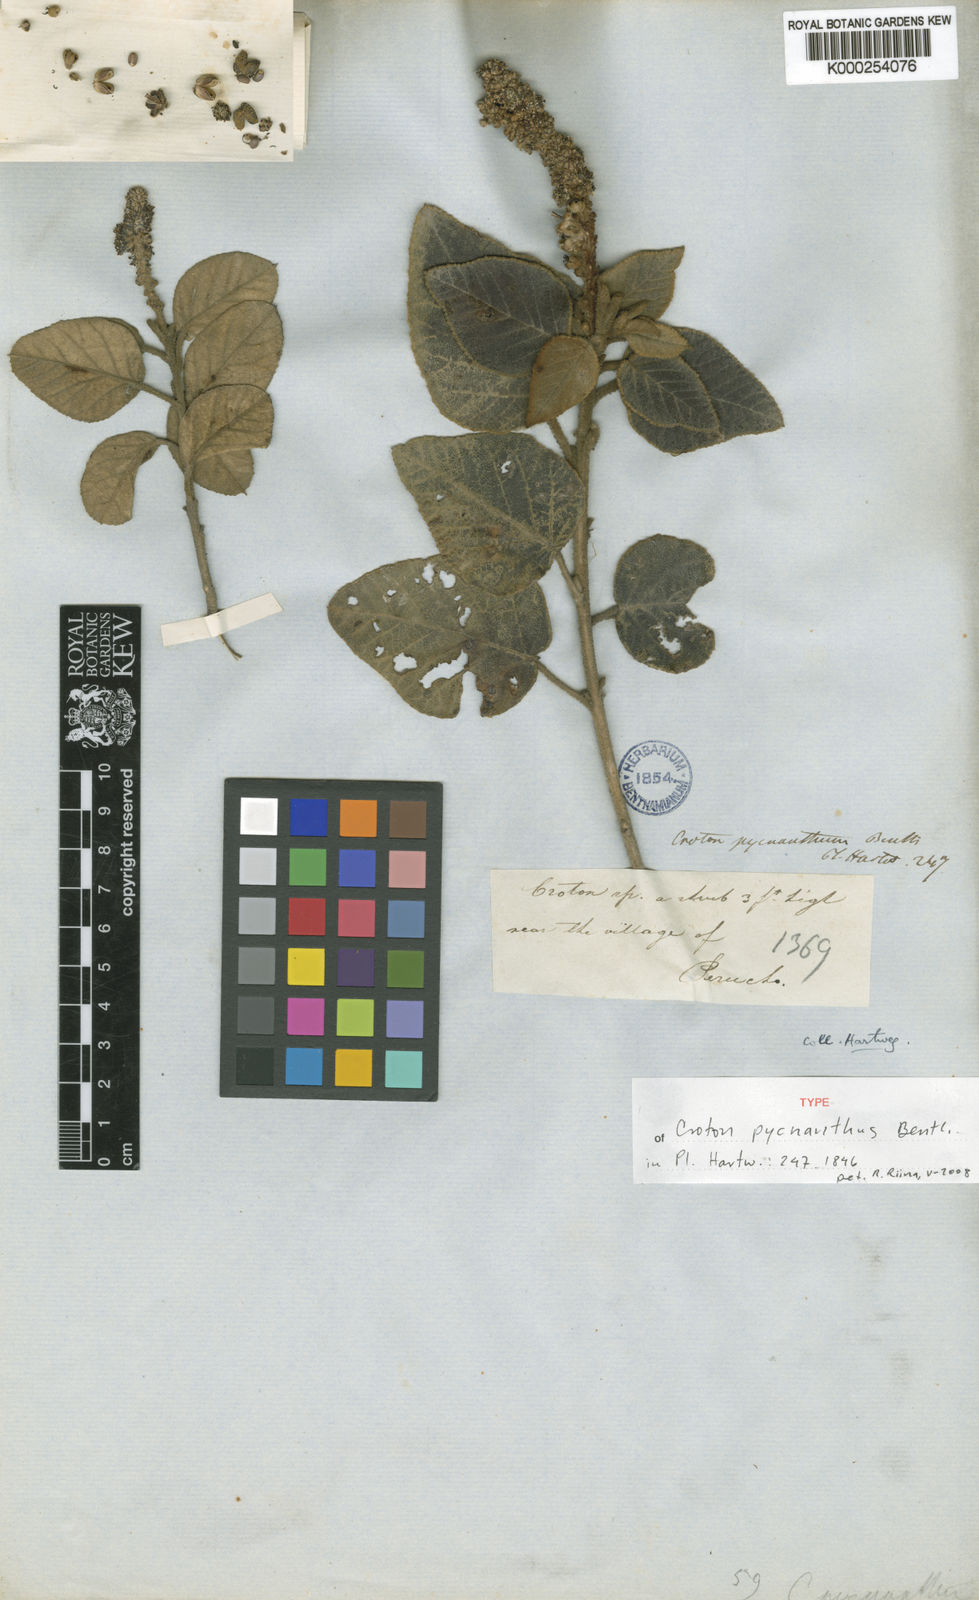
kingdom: Plantae
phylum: Tracheophyta
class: Magnoliopsida
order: Malpighiales
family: Euphorbiaceae
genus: Croton
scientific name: Croton pycnanthus
